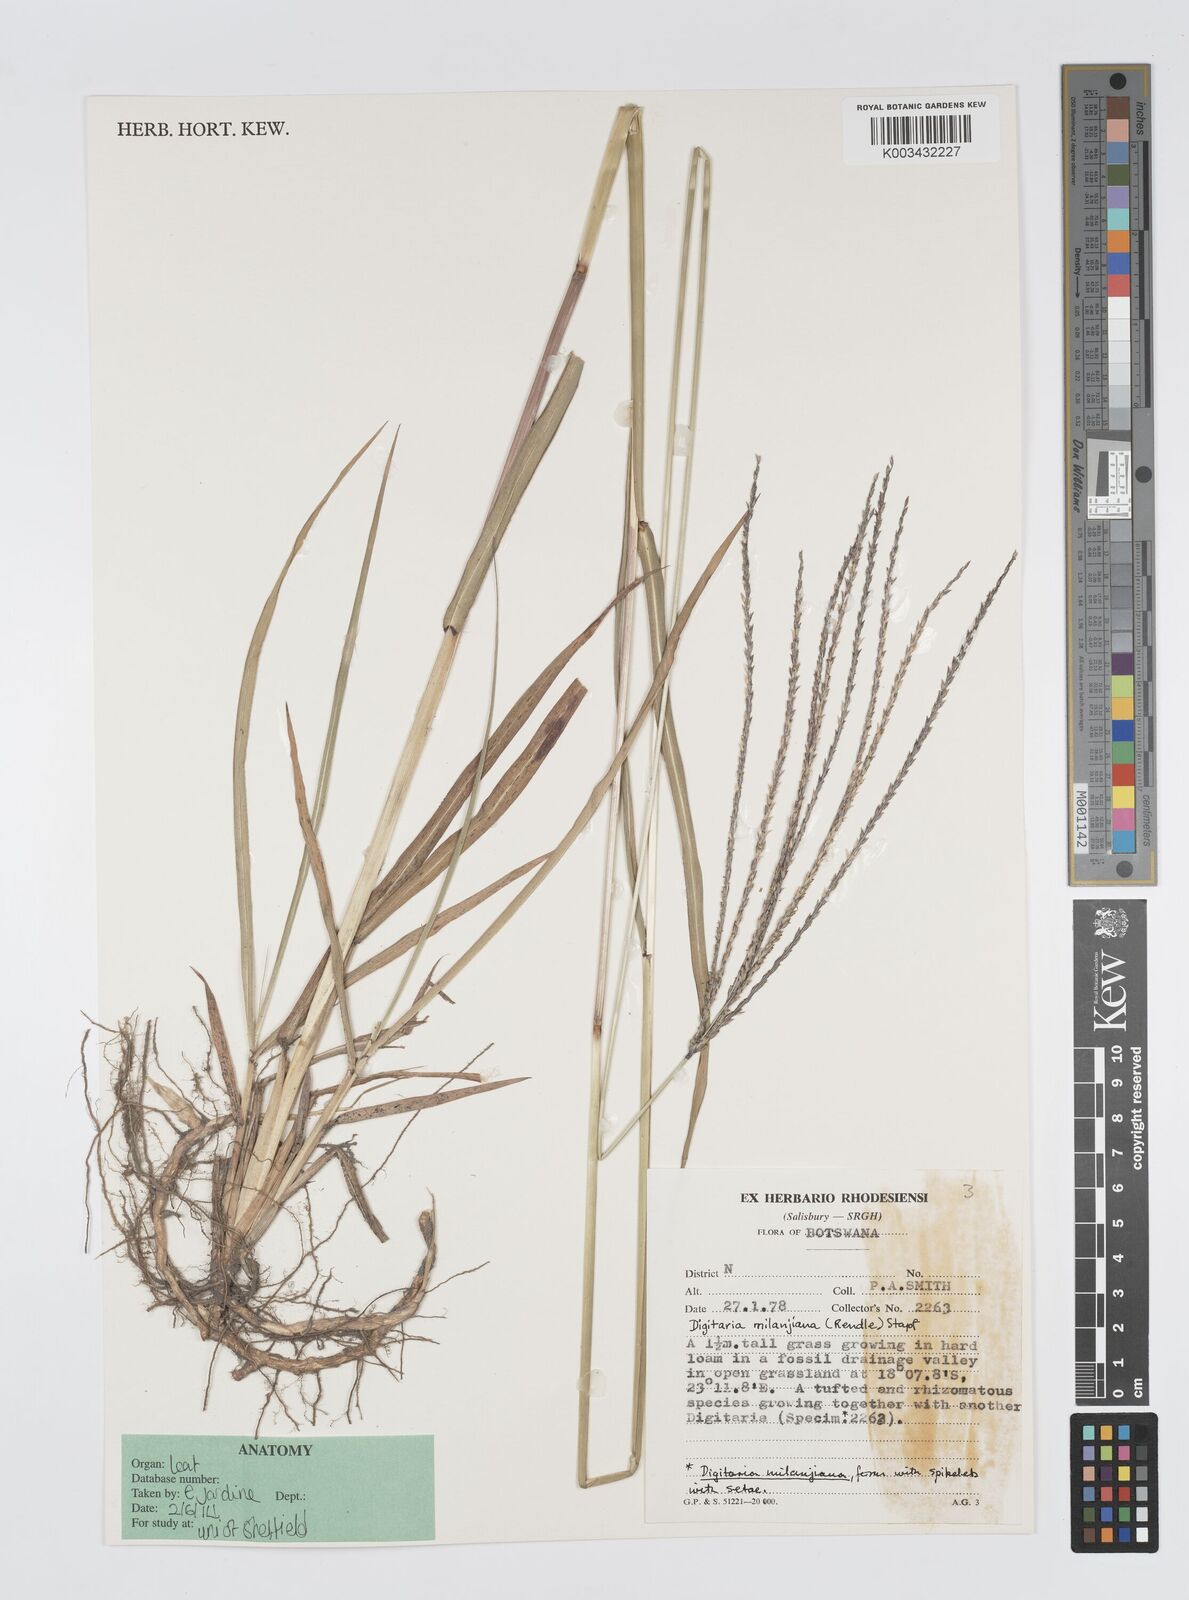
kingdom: Plantae
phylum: Tracheophyta
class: Liliopsida
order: Poales
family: Poaceae
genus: Digitaria
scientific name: Digitaria milanjiana
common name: Madagascar crabgrass
